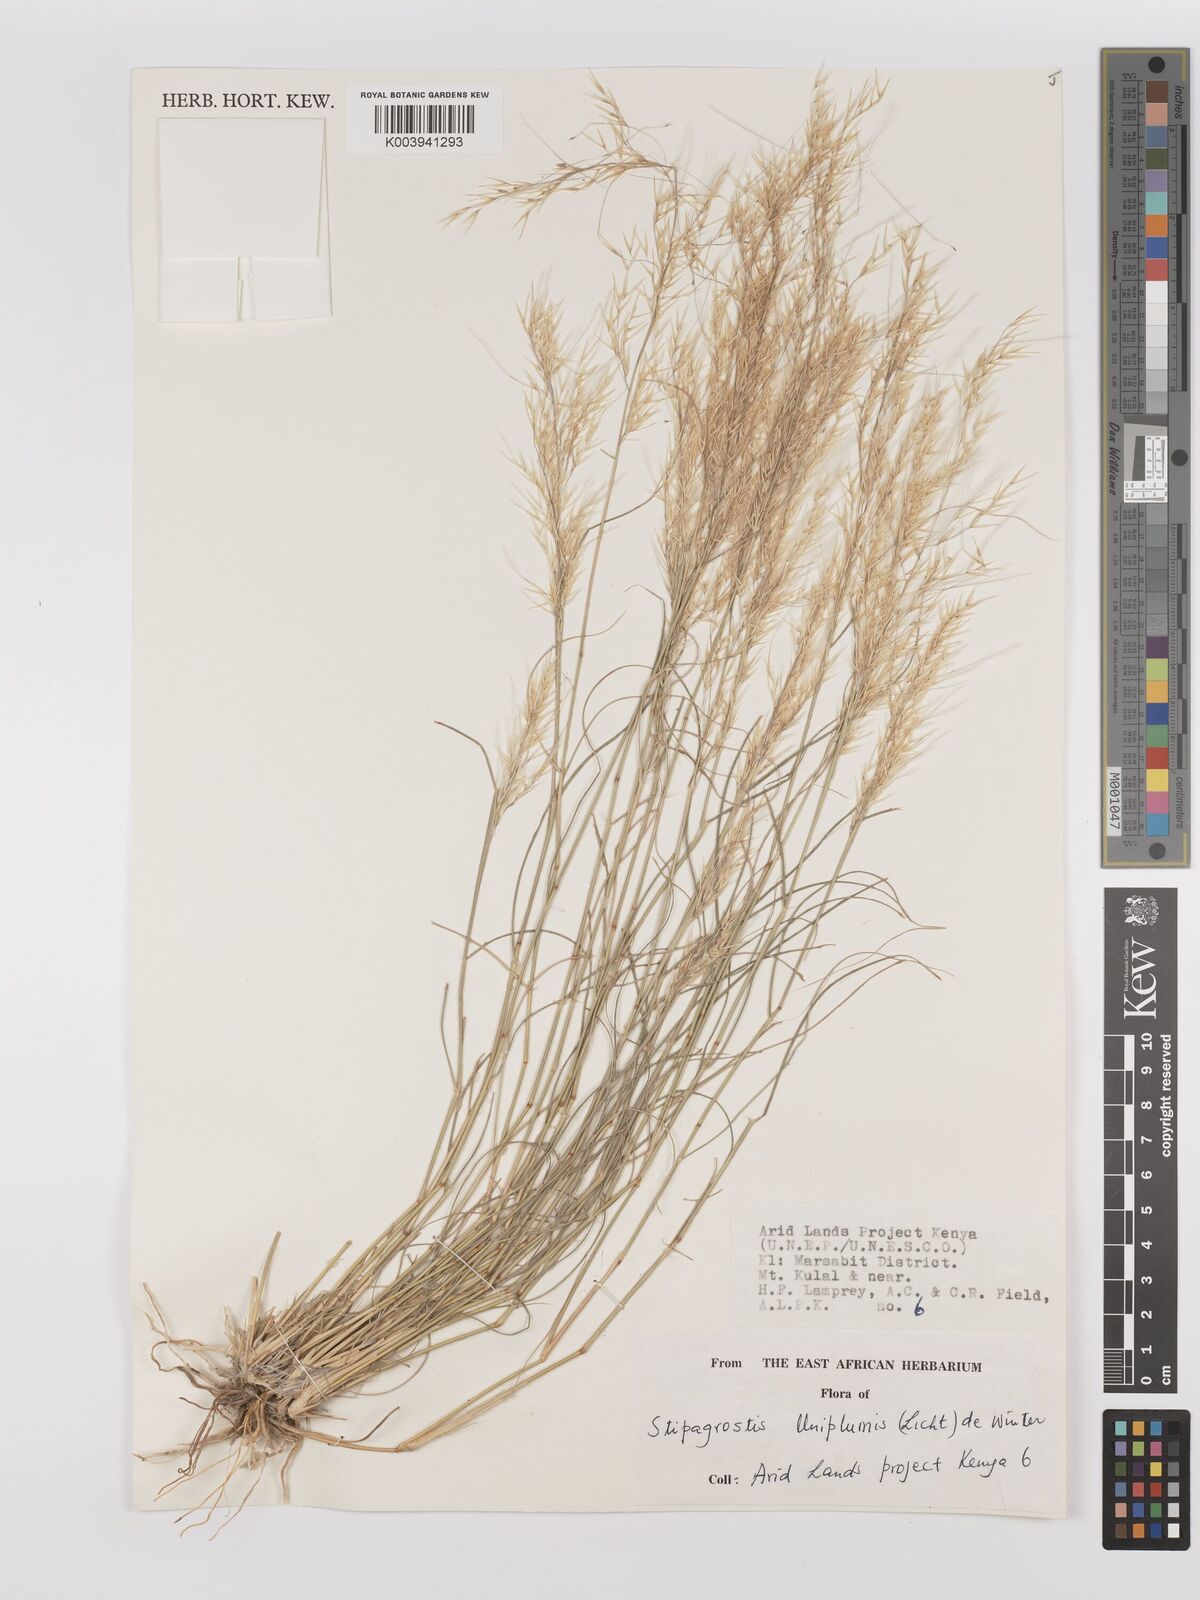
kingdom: Plantae
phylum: Tracheophyta
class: Liliopsida
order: Poales
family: Poaceae
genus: Stipagrostis
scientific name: Stipagrostis uniplumis
